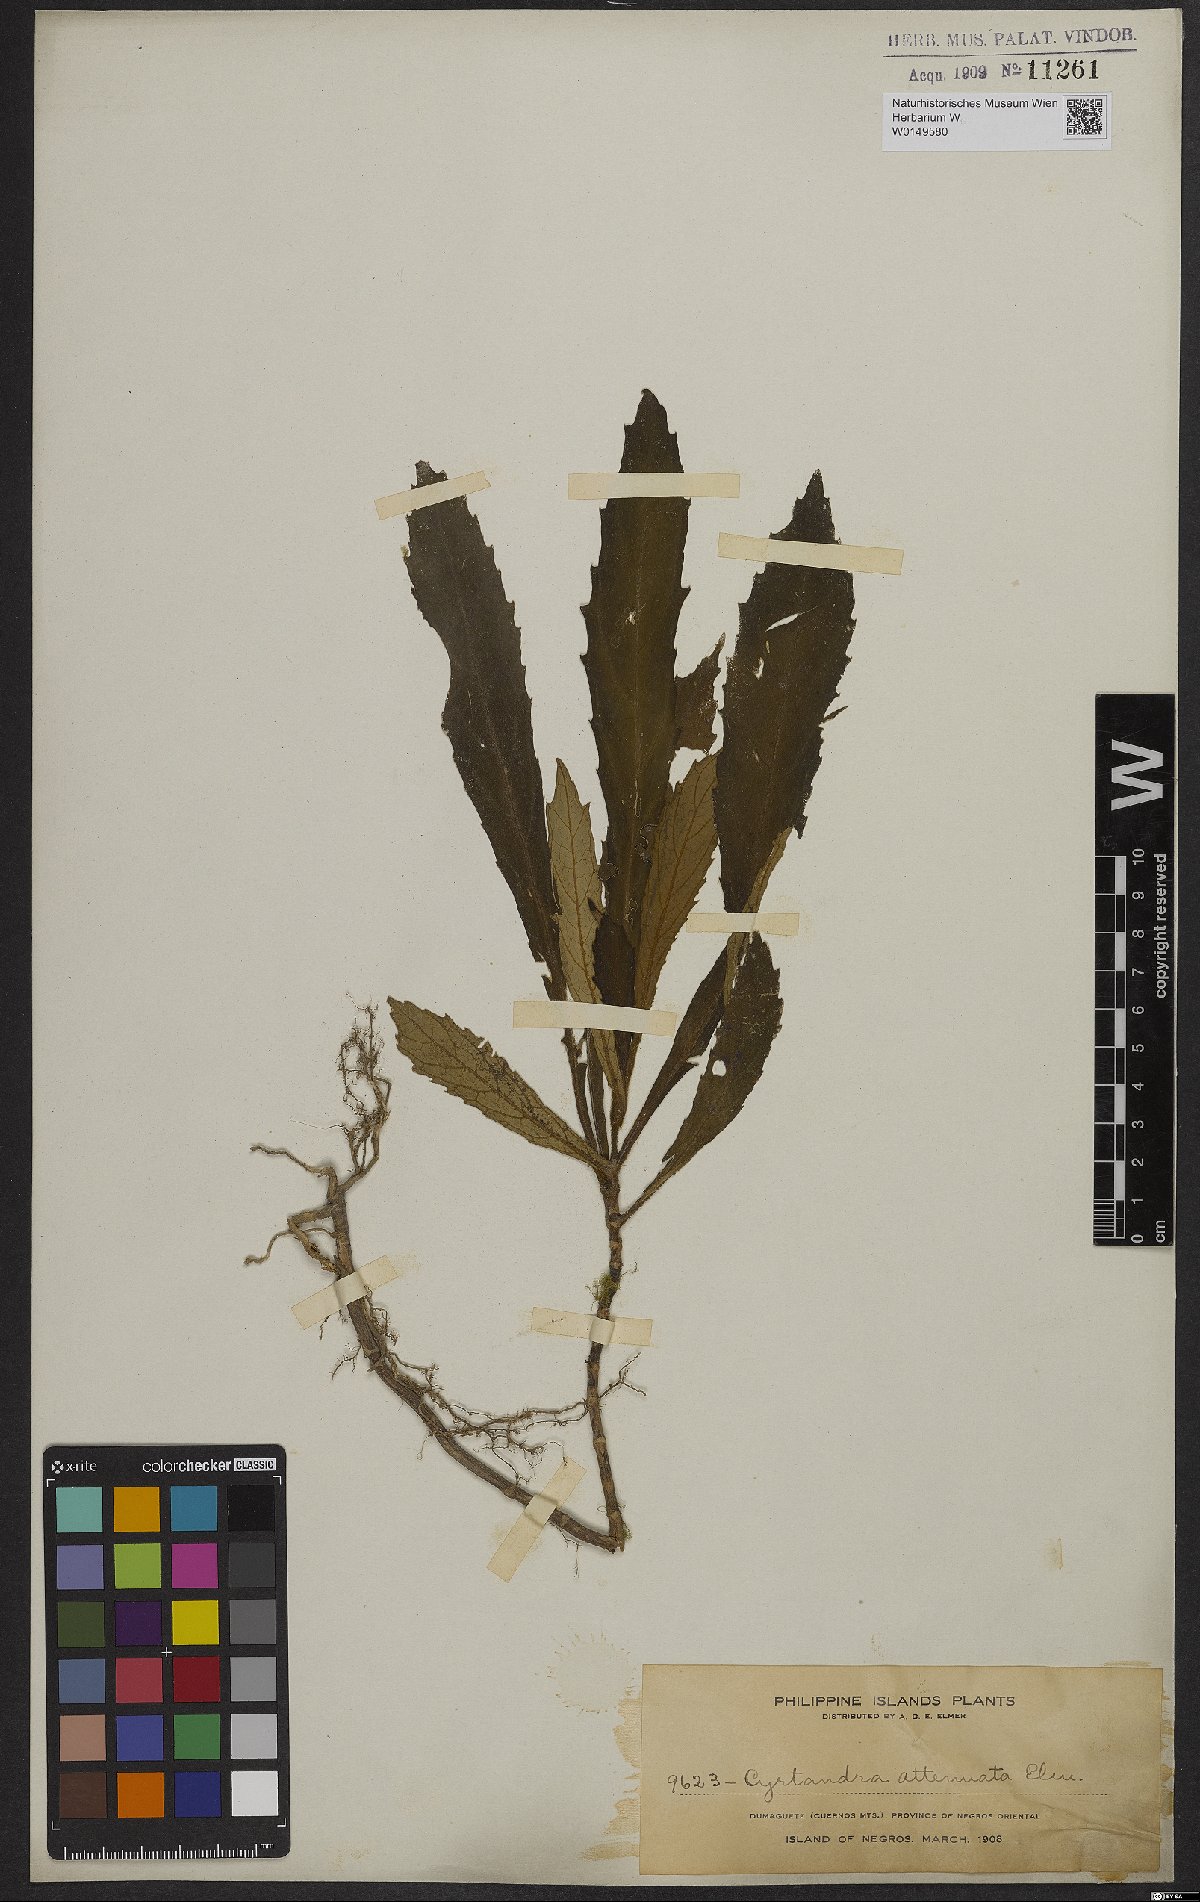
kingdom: Plantae
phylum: Tracheophyta
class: Magnoliopsida
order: Lamiales
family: Gesneriaceae
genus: Cyrtandra
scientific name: Cyrtandra attenuata
